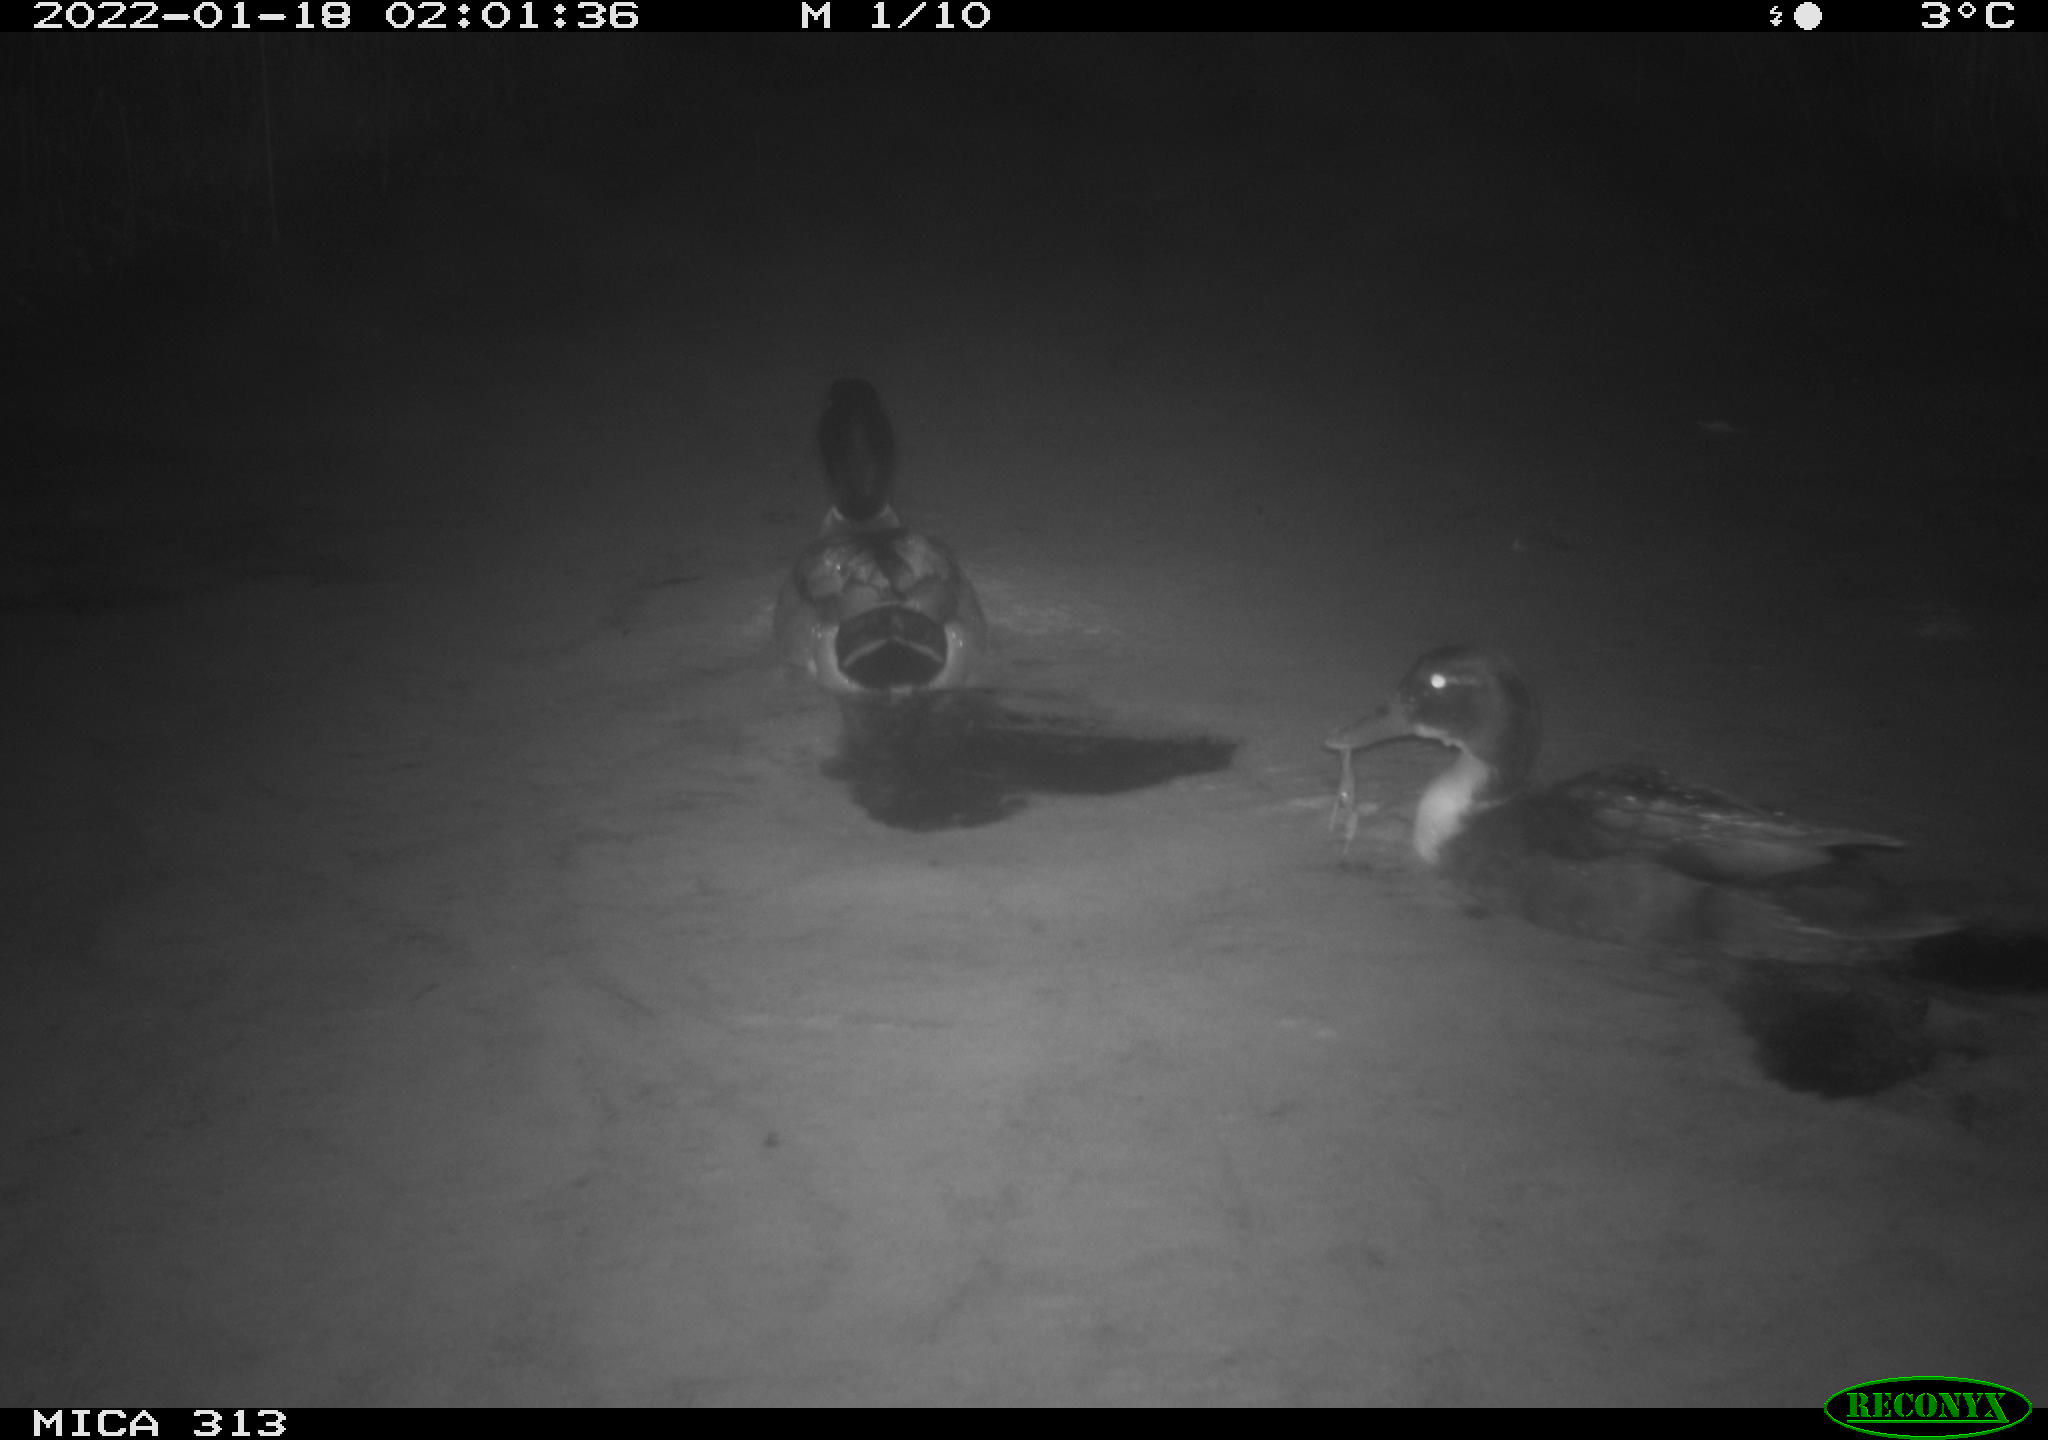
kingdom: Animalia
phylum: Chordata
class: Aves
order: Anseriformes
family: Anatidae
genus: Anas
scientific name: Anas
